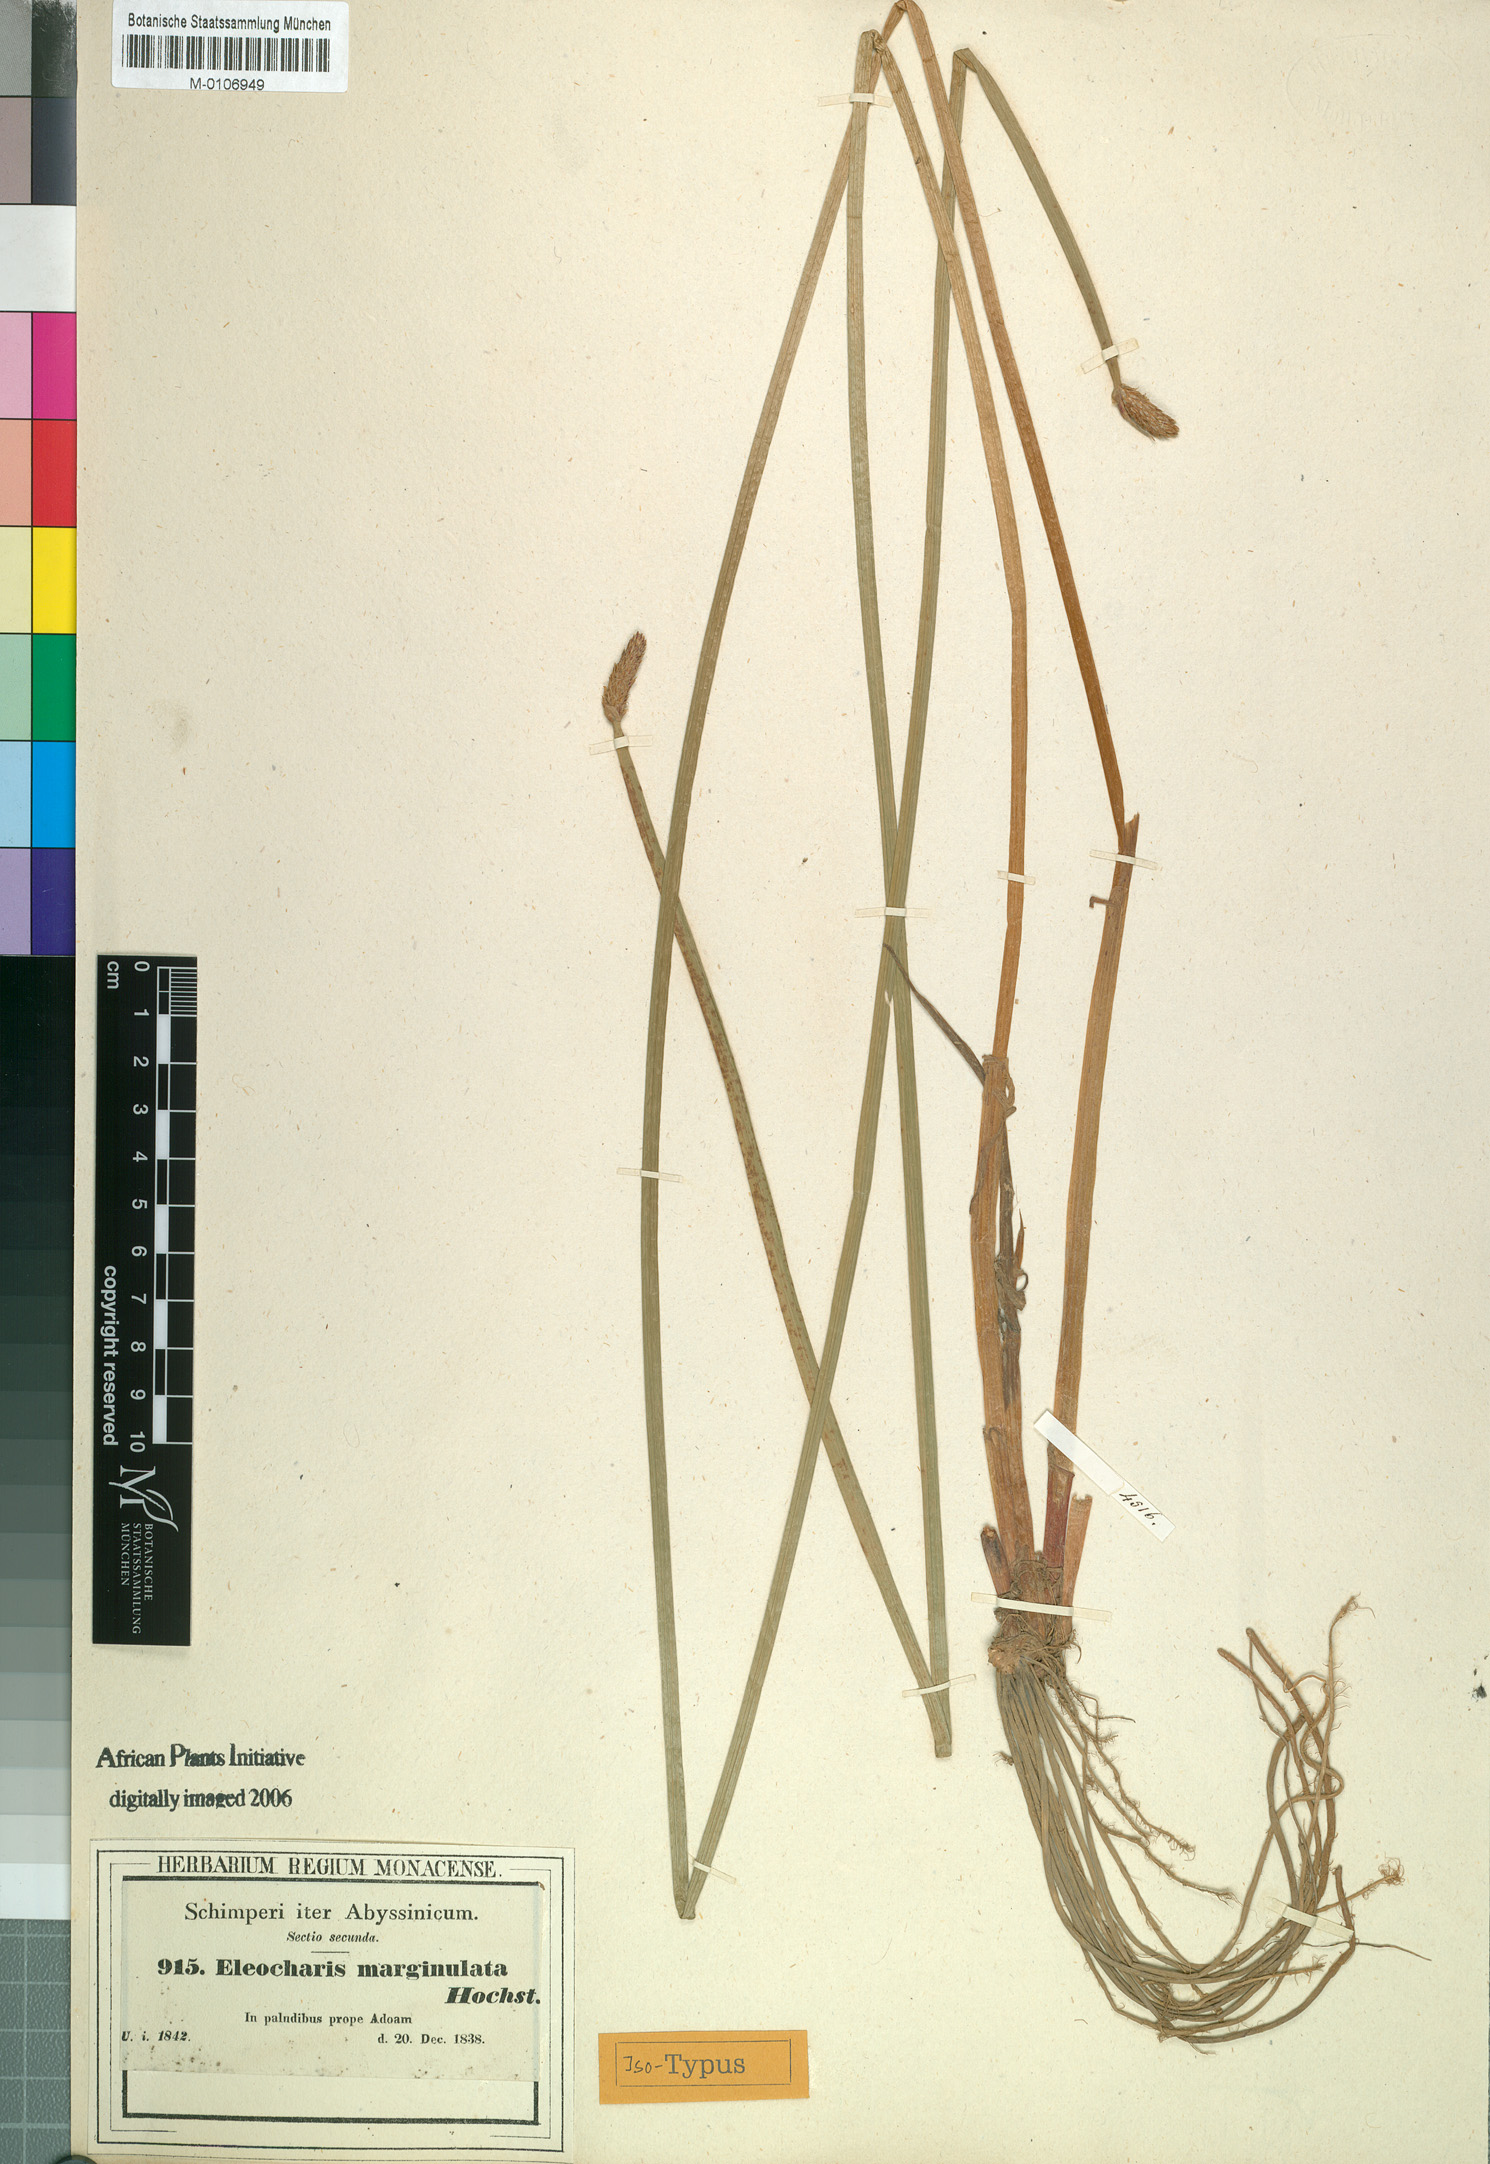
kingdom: Plantae
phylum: Tracheophyta
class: Liliopsida
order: Poales
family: Cyperaceae
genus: Eleocharis
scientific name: Eleocharis marginulata
